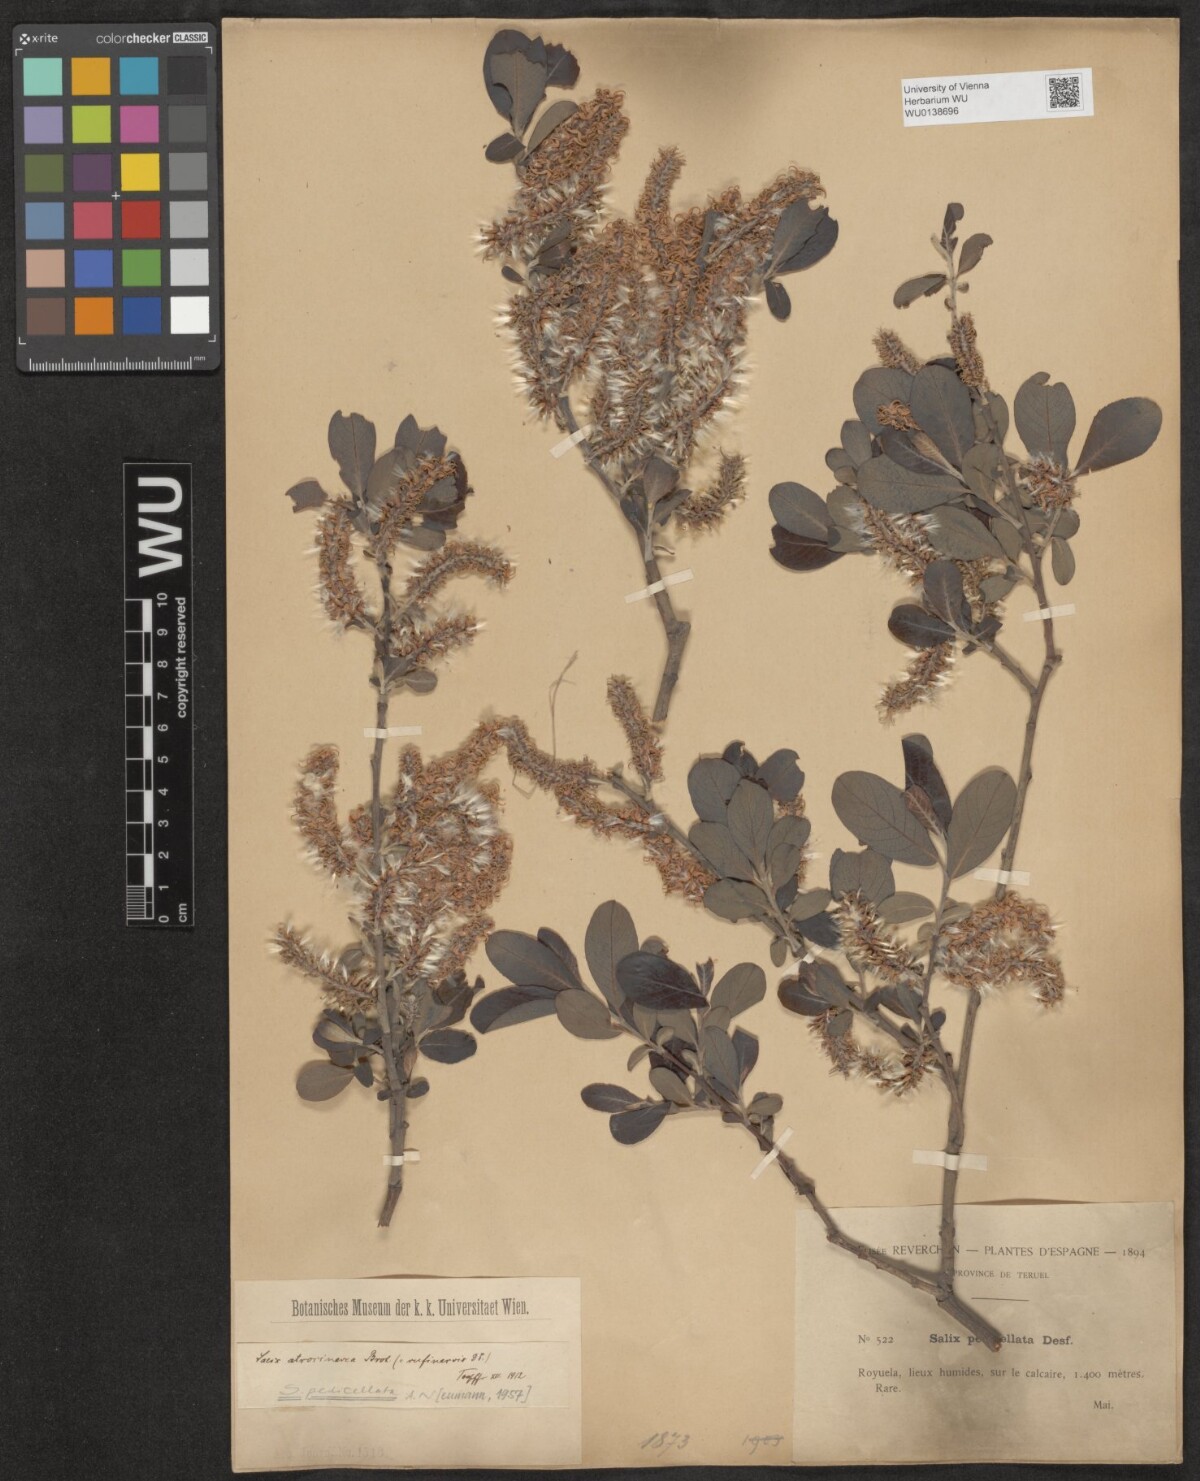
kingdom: Plantae
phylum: Tracheophyta
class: Magnoliopsida
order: Malpighiales
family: Salicaceae
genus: Salix
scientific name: Salix pedicellata
